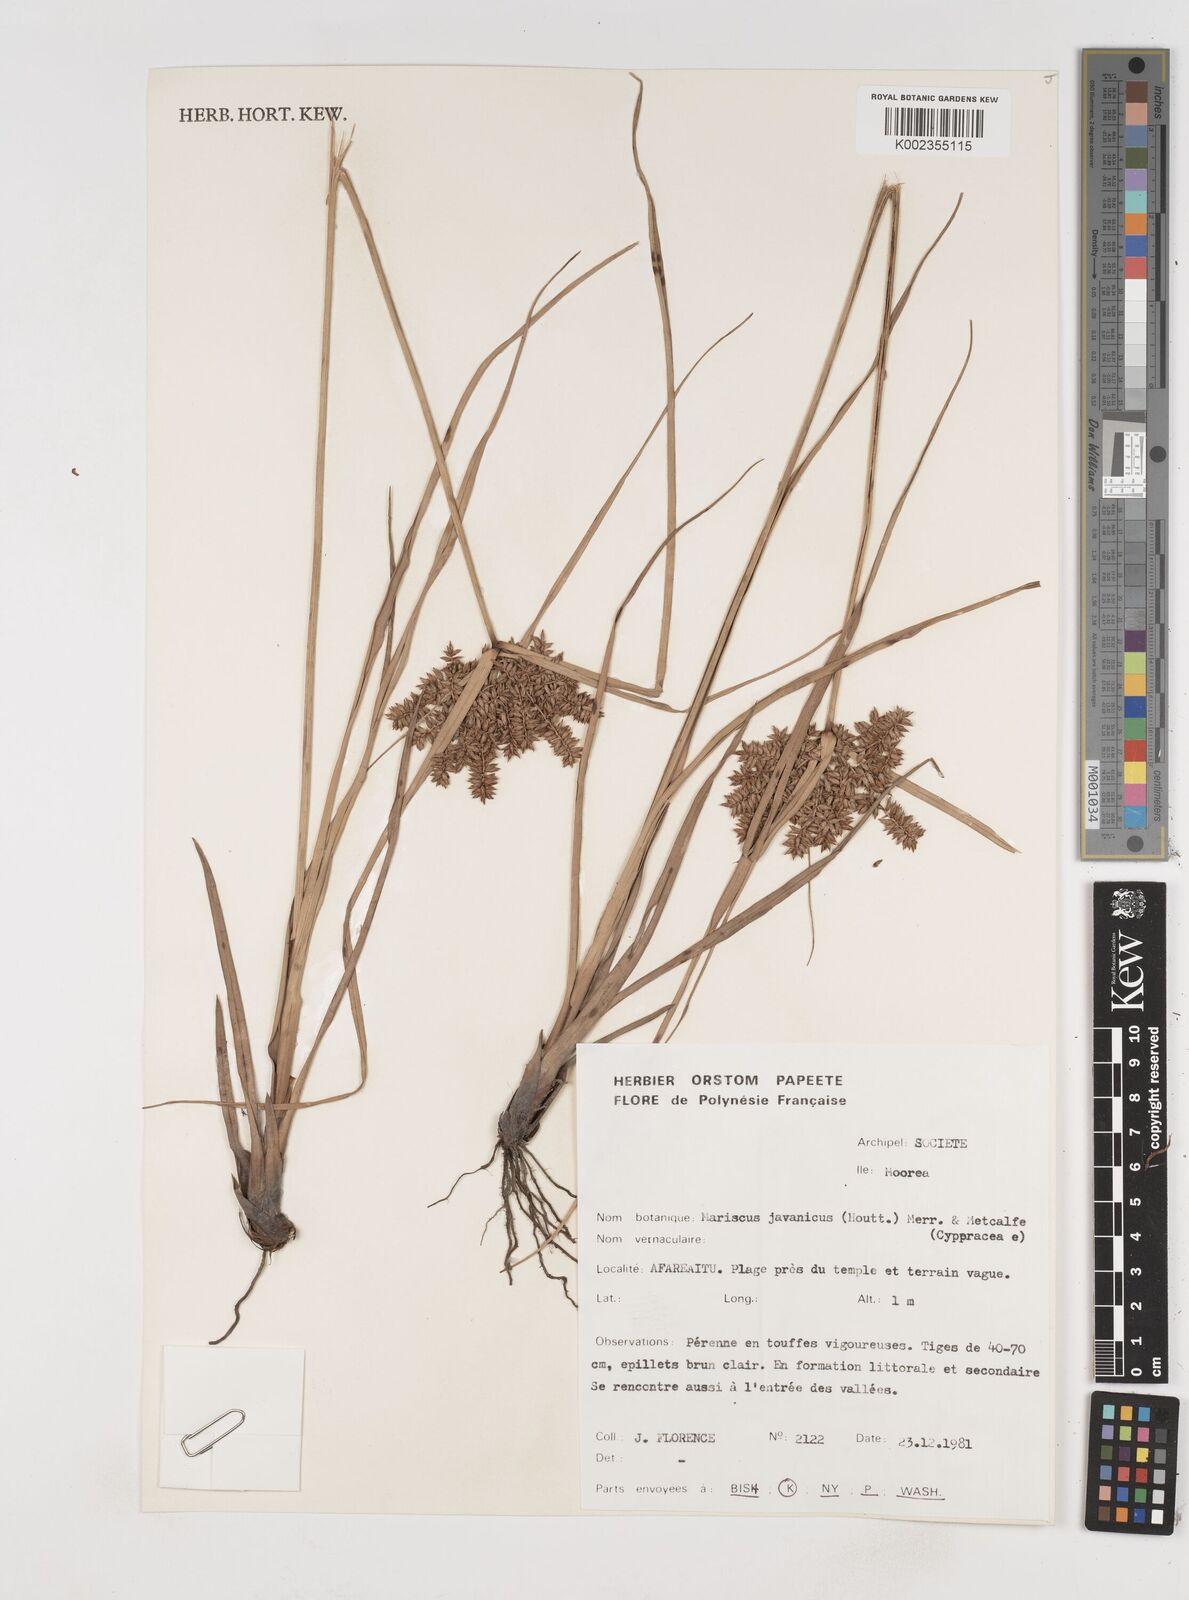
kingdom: Plantae
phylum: Tracheophyta
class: Liliopsida
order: Poales
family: Cyperaceae
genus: Cyperus
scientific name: Cyperus javanicus
